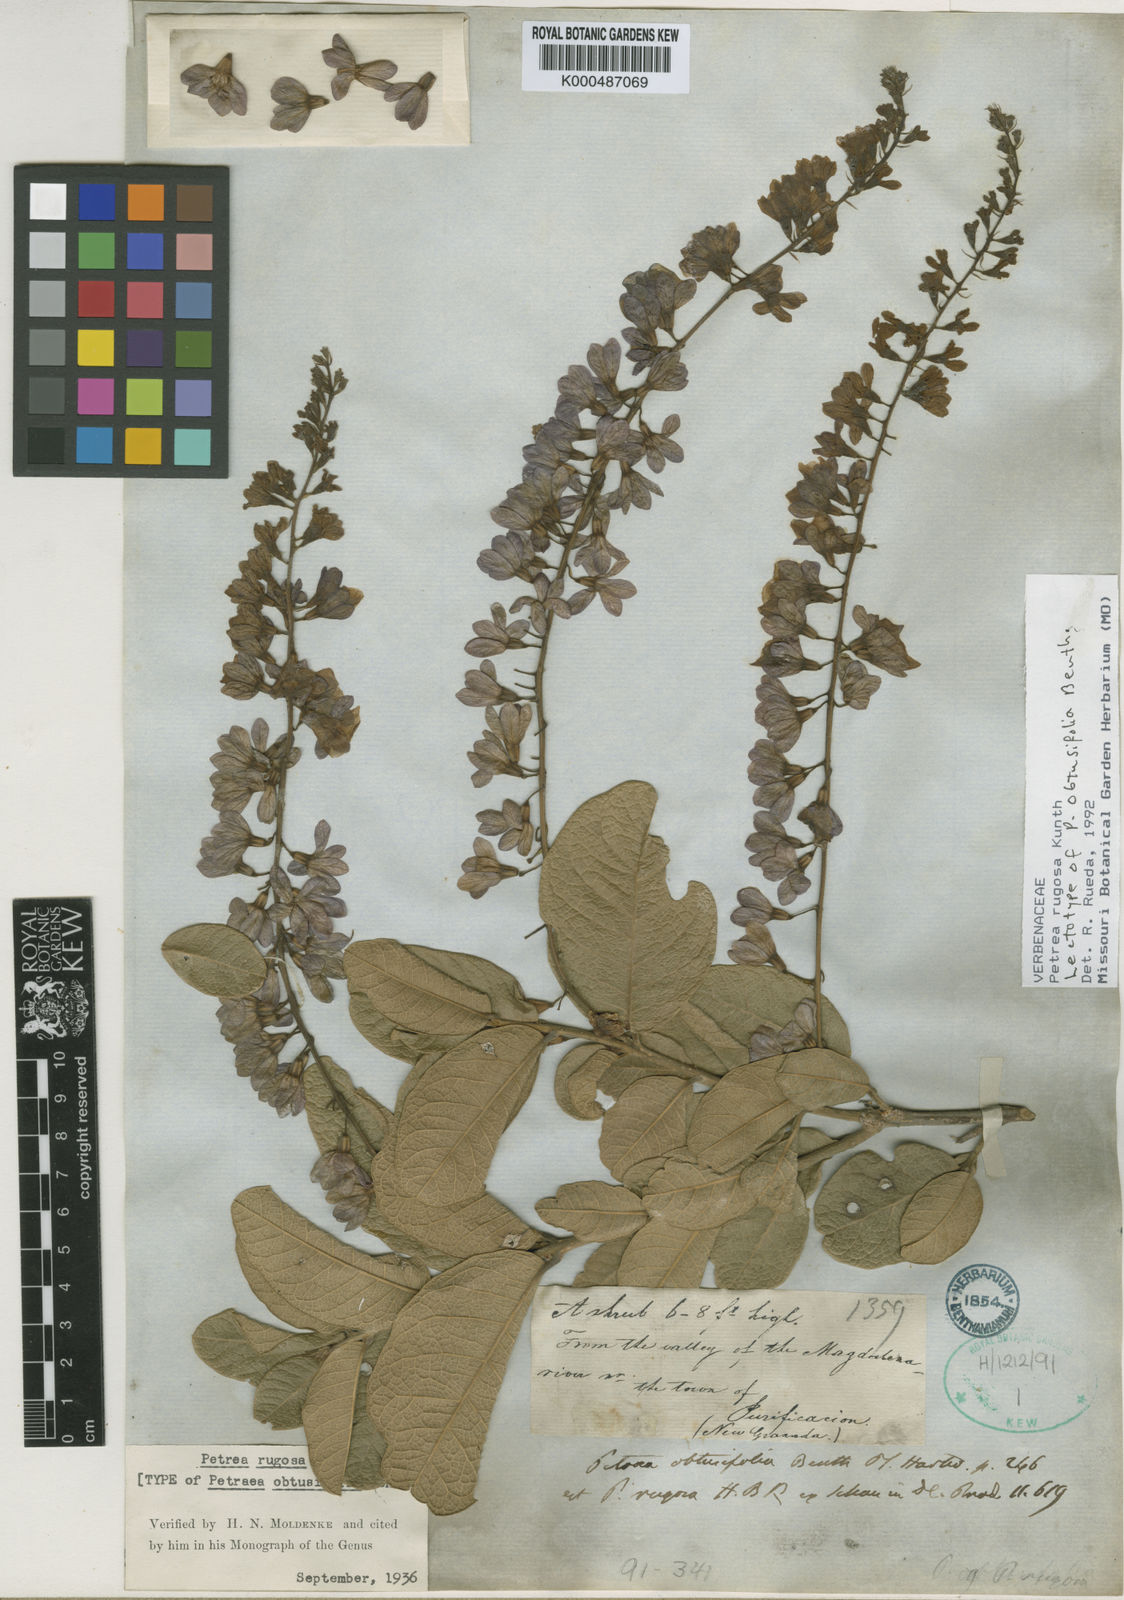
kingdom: Plantae
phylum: Tracheophyta
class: Magnoliopsida
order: Lamiales
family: Verbenaceae
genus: Petrea
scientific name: Petrea rugosa
